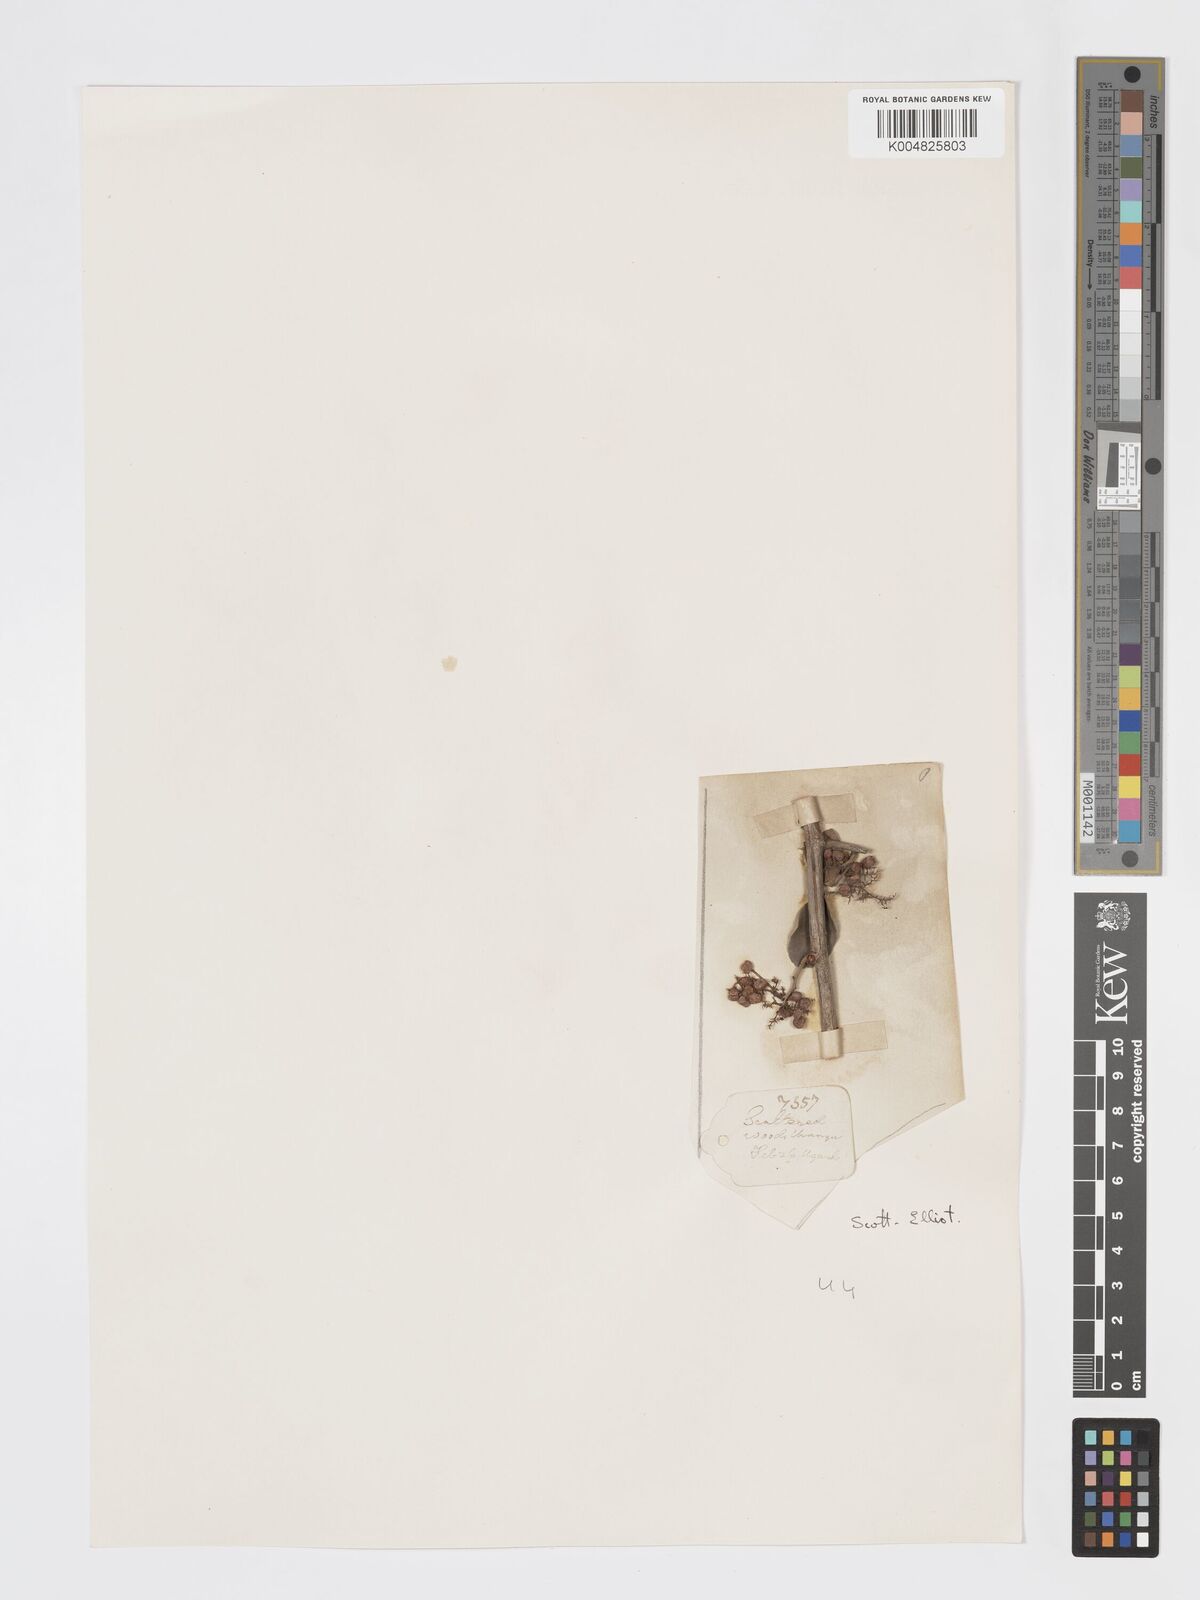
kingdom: Plantae
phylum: Tracheophyta
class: Magnoliopsida
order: Sapindales
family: Anacardiaceae
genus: Searsia
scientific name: Searsia natalensis
